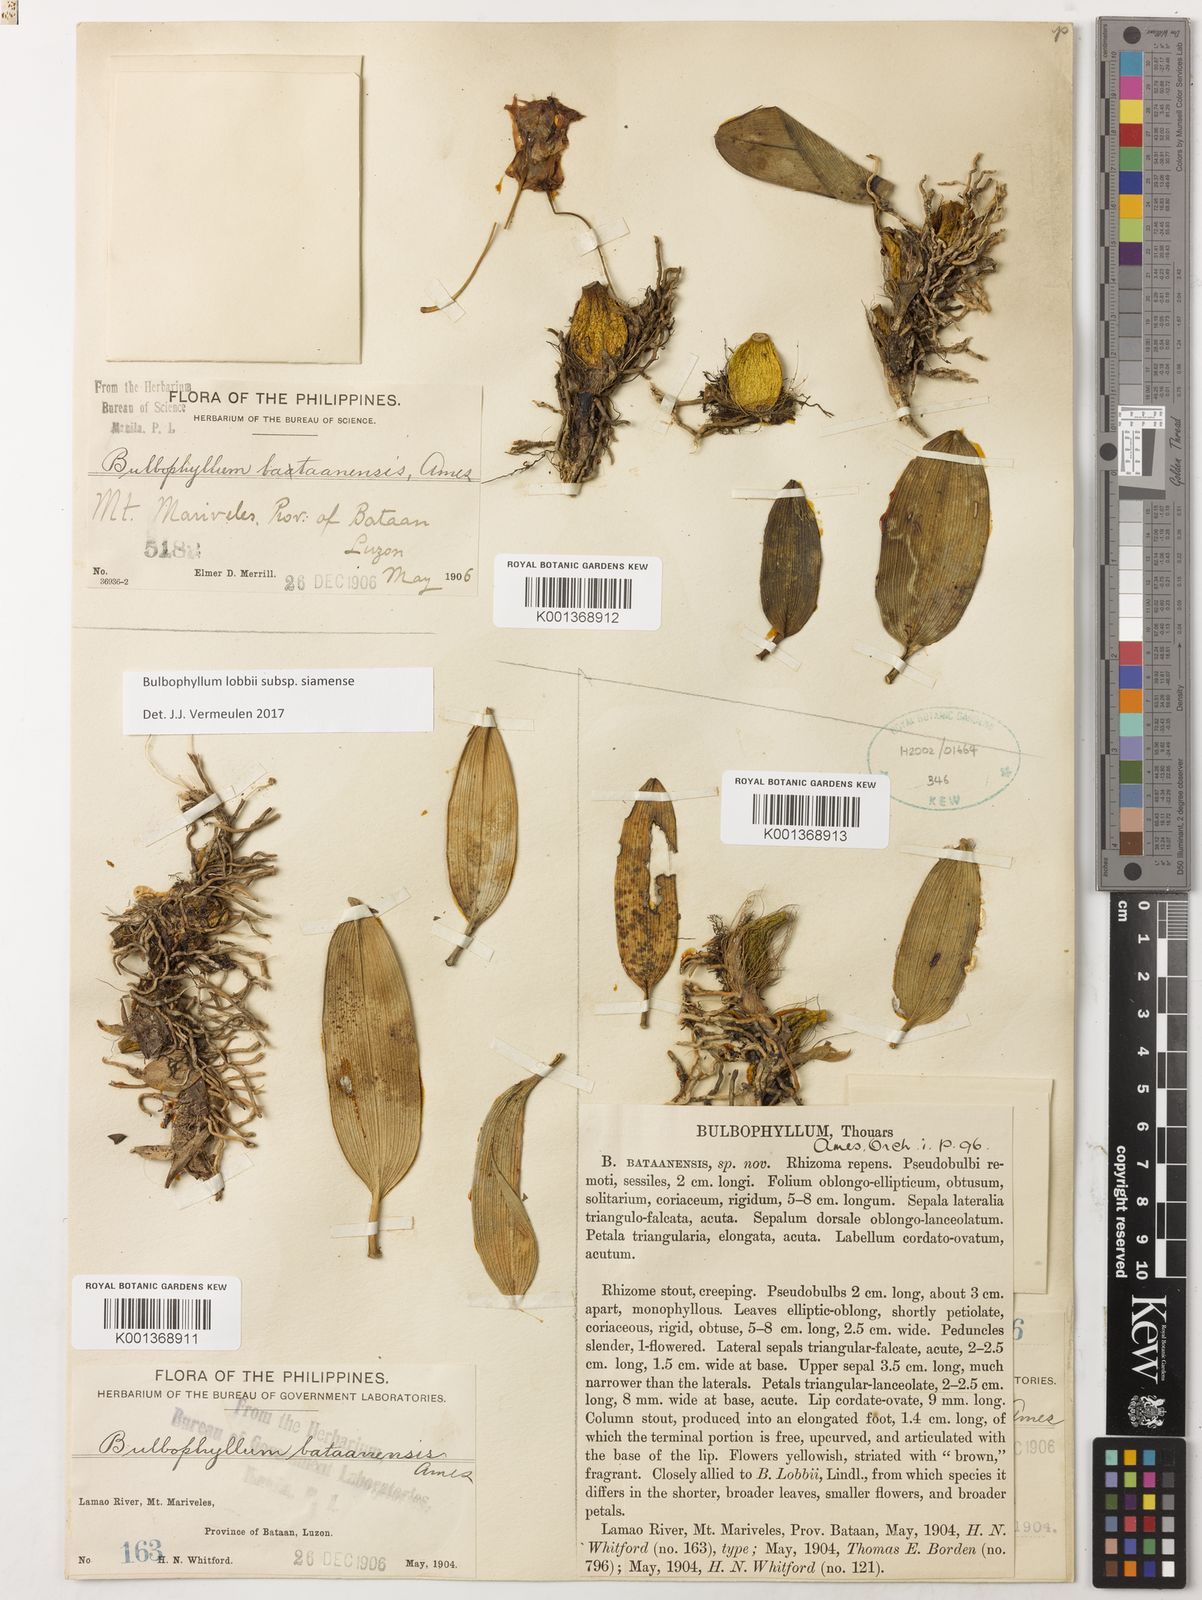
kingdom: Plantae
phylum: Tracheophyta
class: Liliopsida
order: Asparagales
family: Orchidaceae
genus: Bulbophyllum
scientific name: Bulbophyllum lobbii
